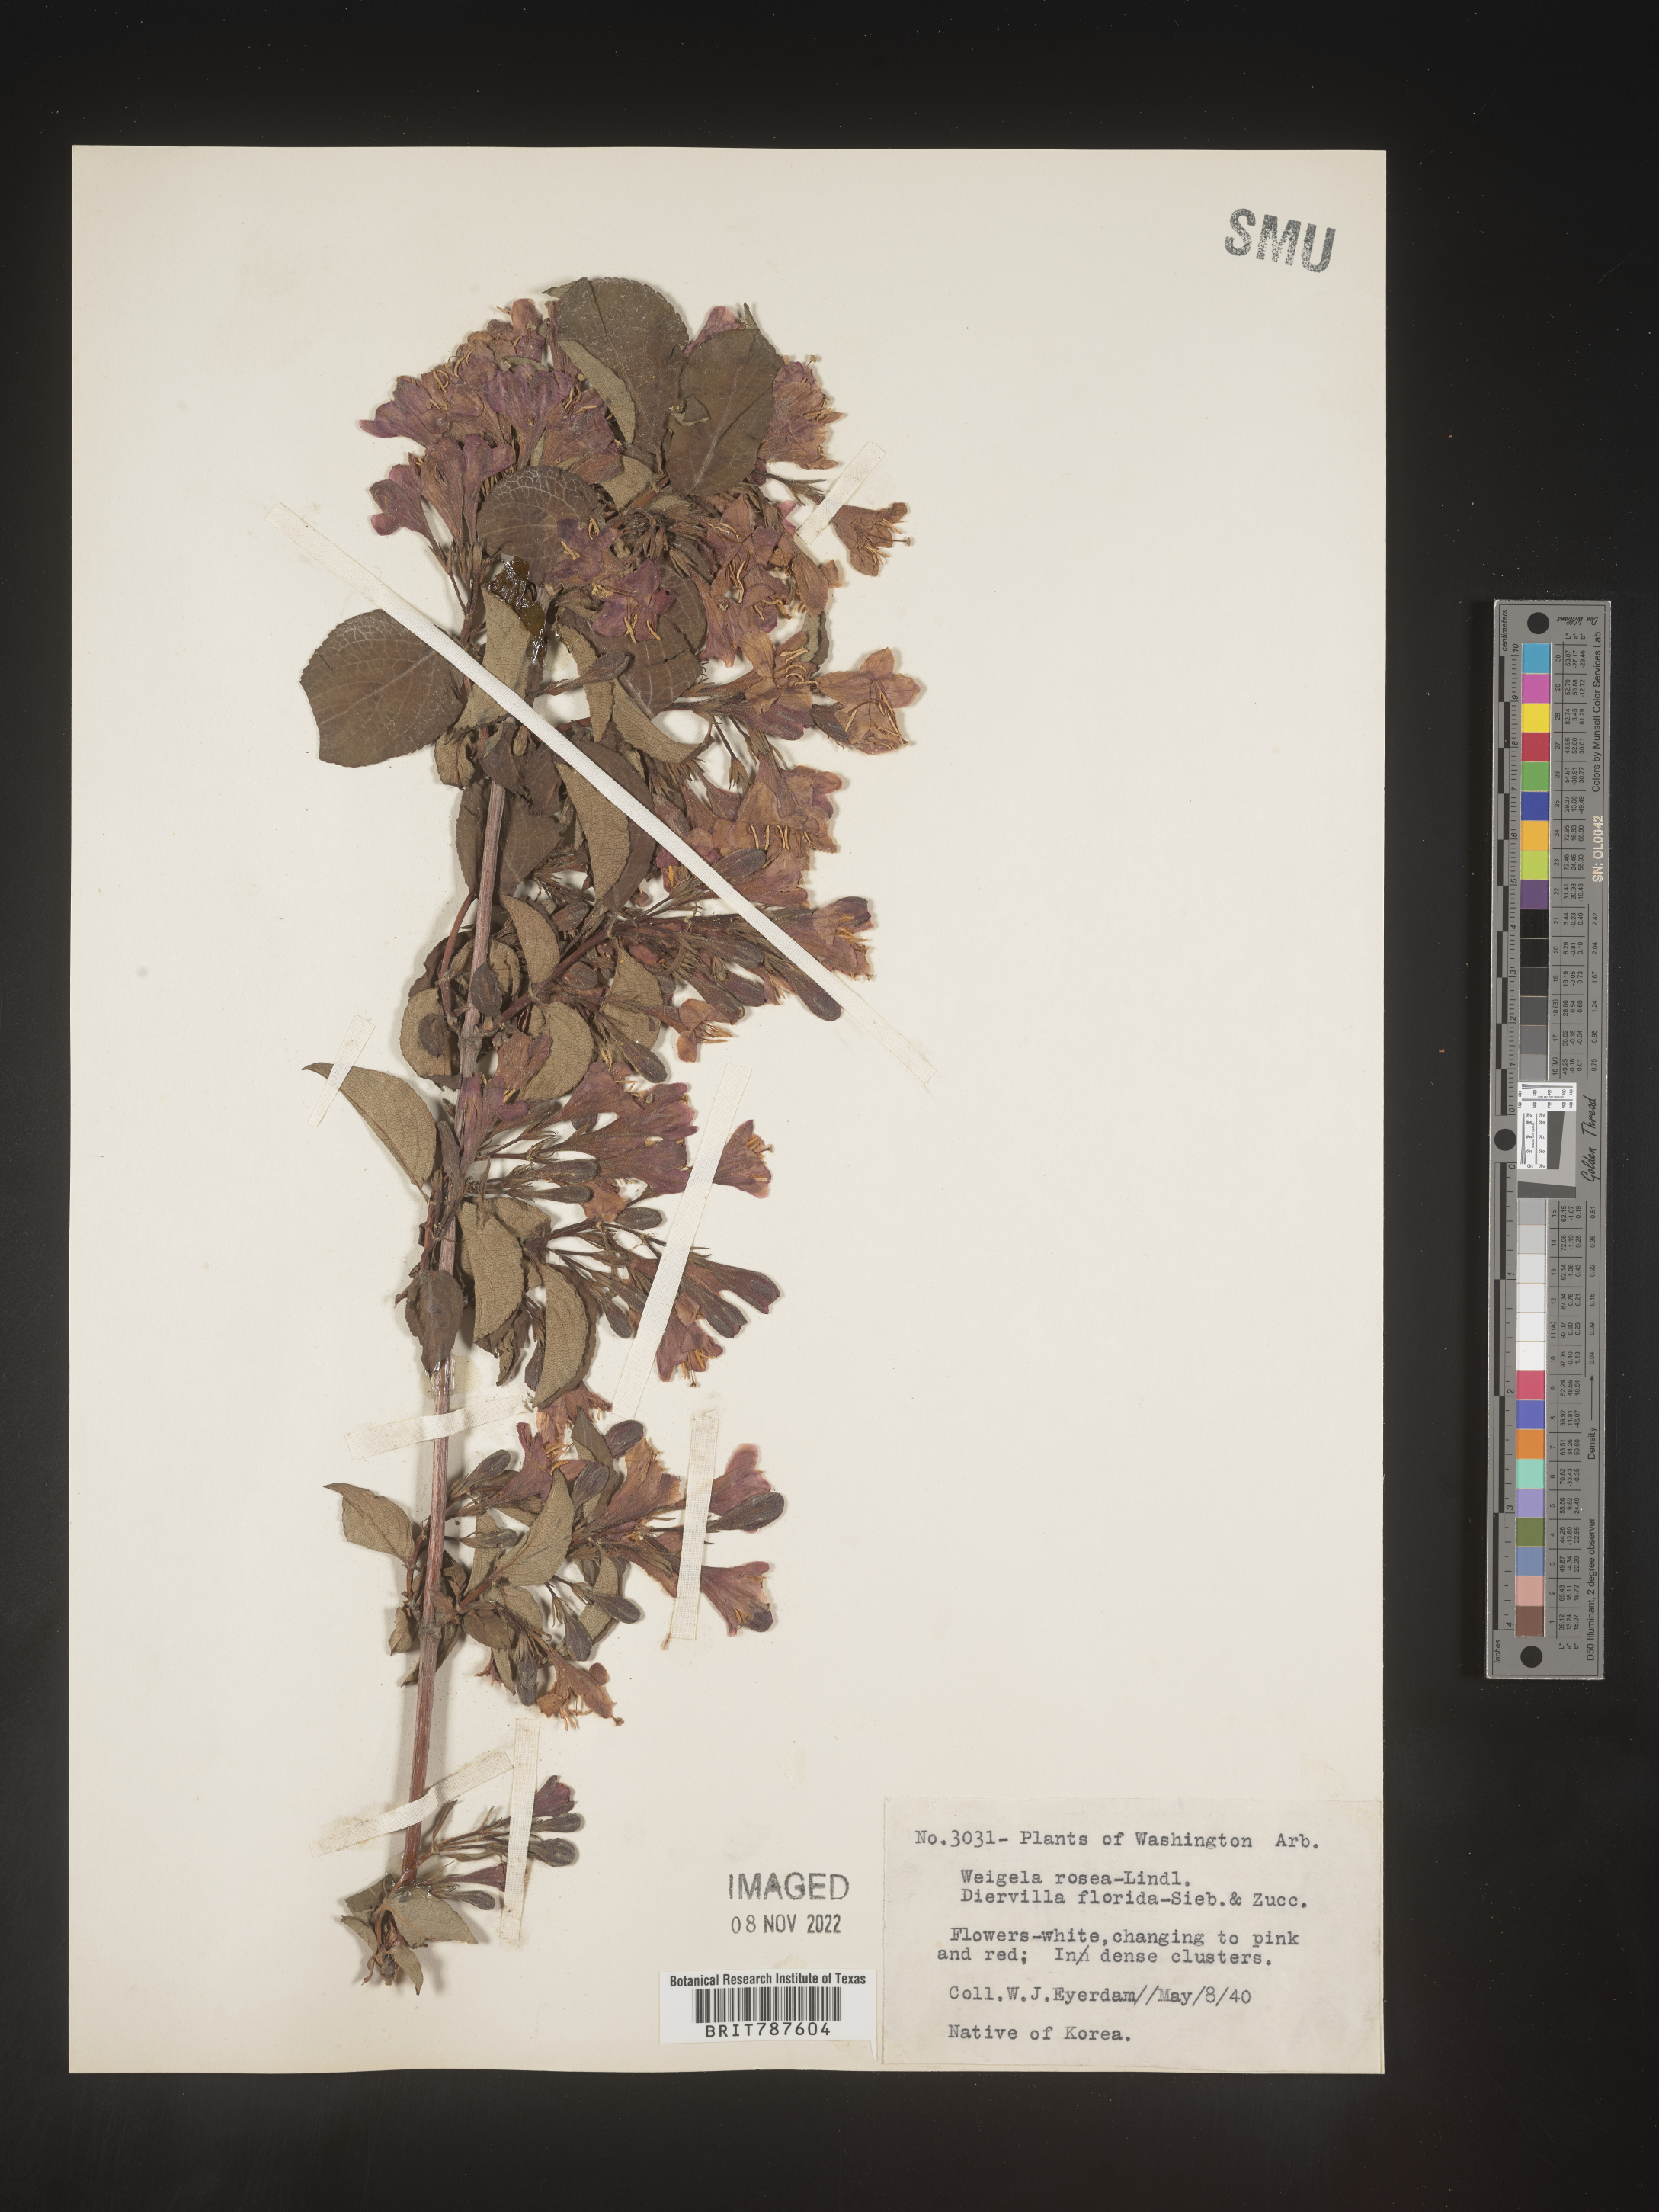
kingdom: Plantae
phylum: Tracheophyta
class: Magnoliopsida
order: Dipsacales
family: Caprifoliaceae
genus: Weigela
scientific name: Weigela
